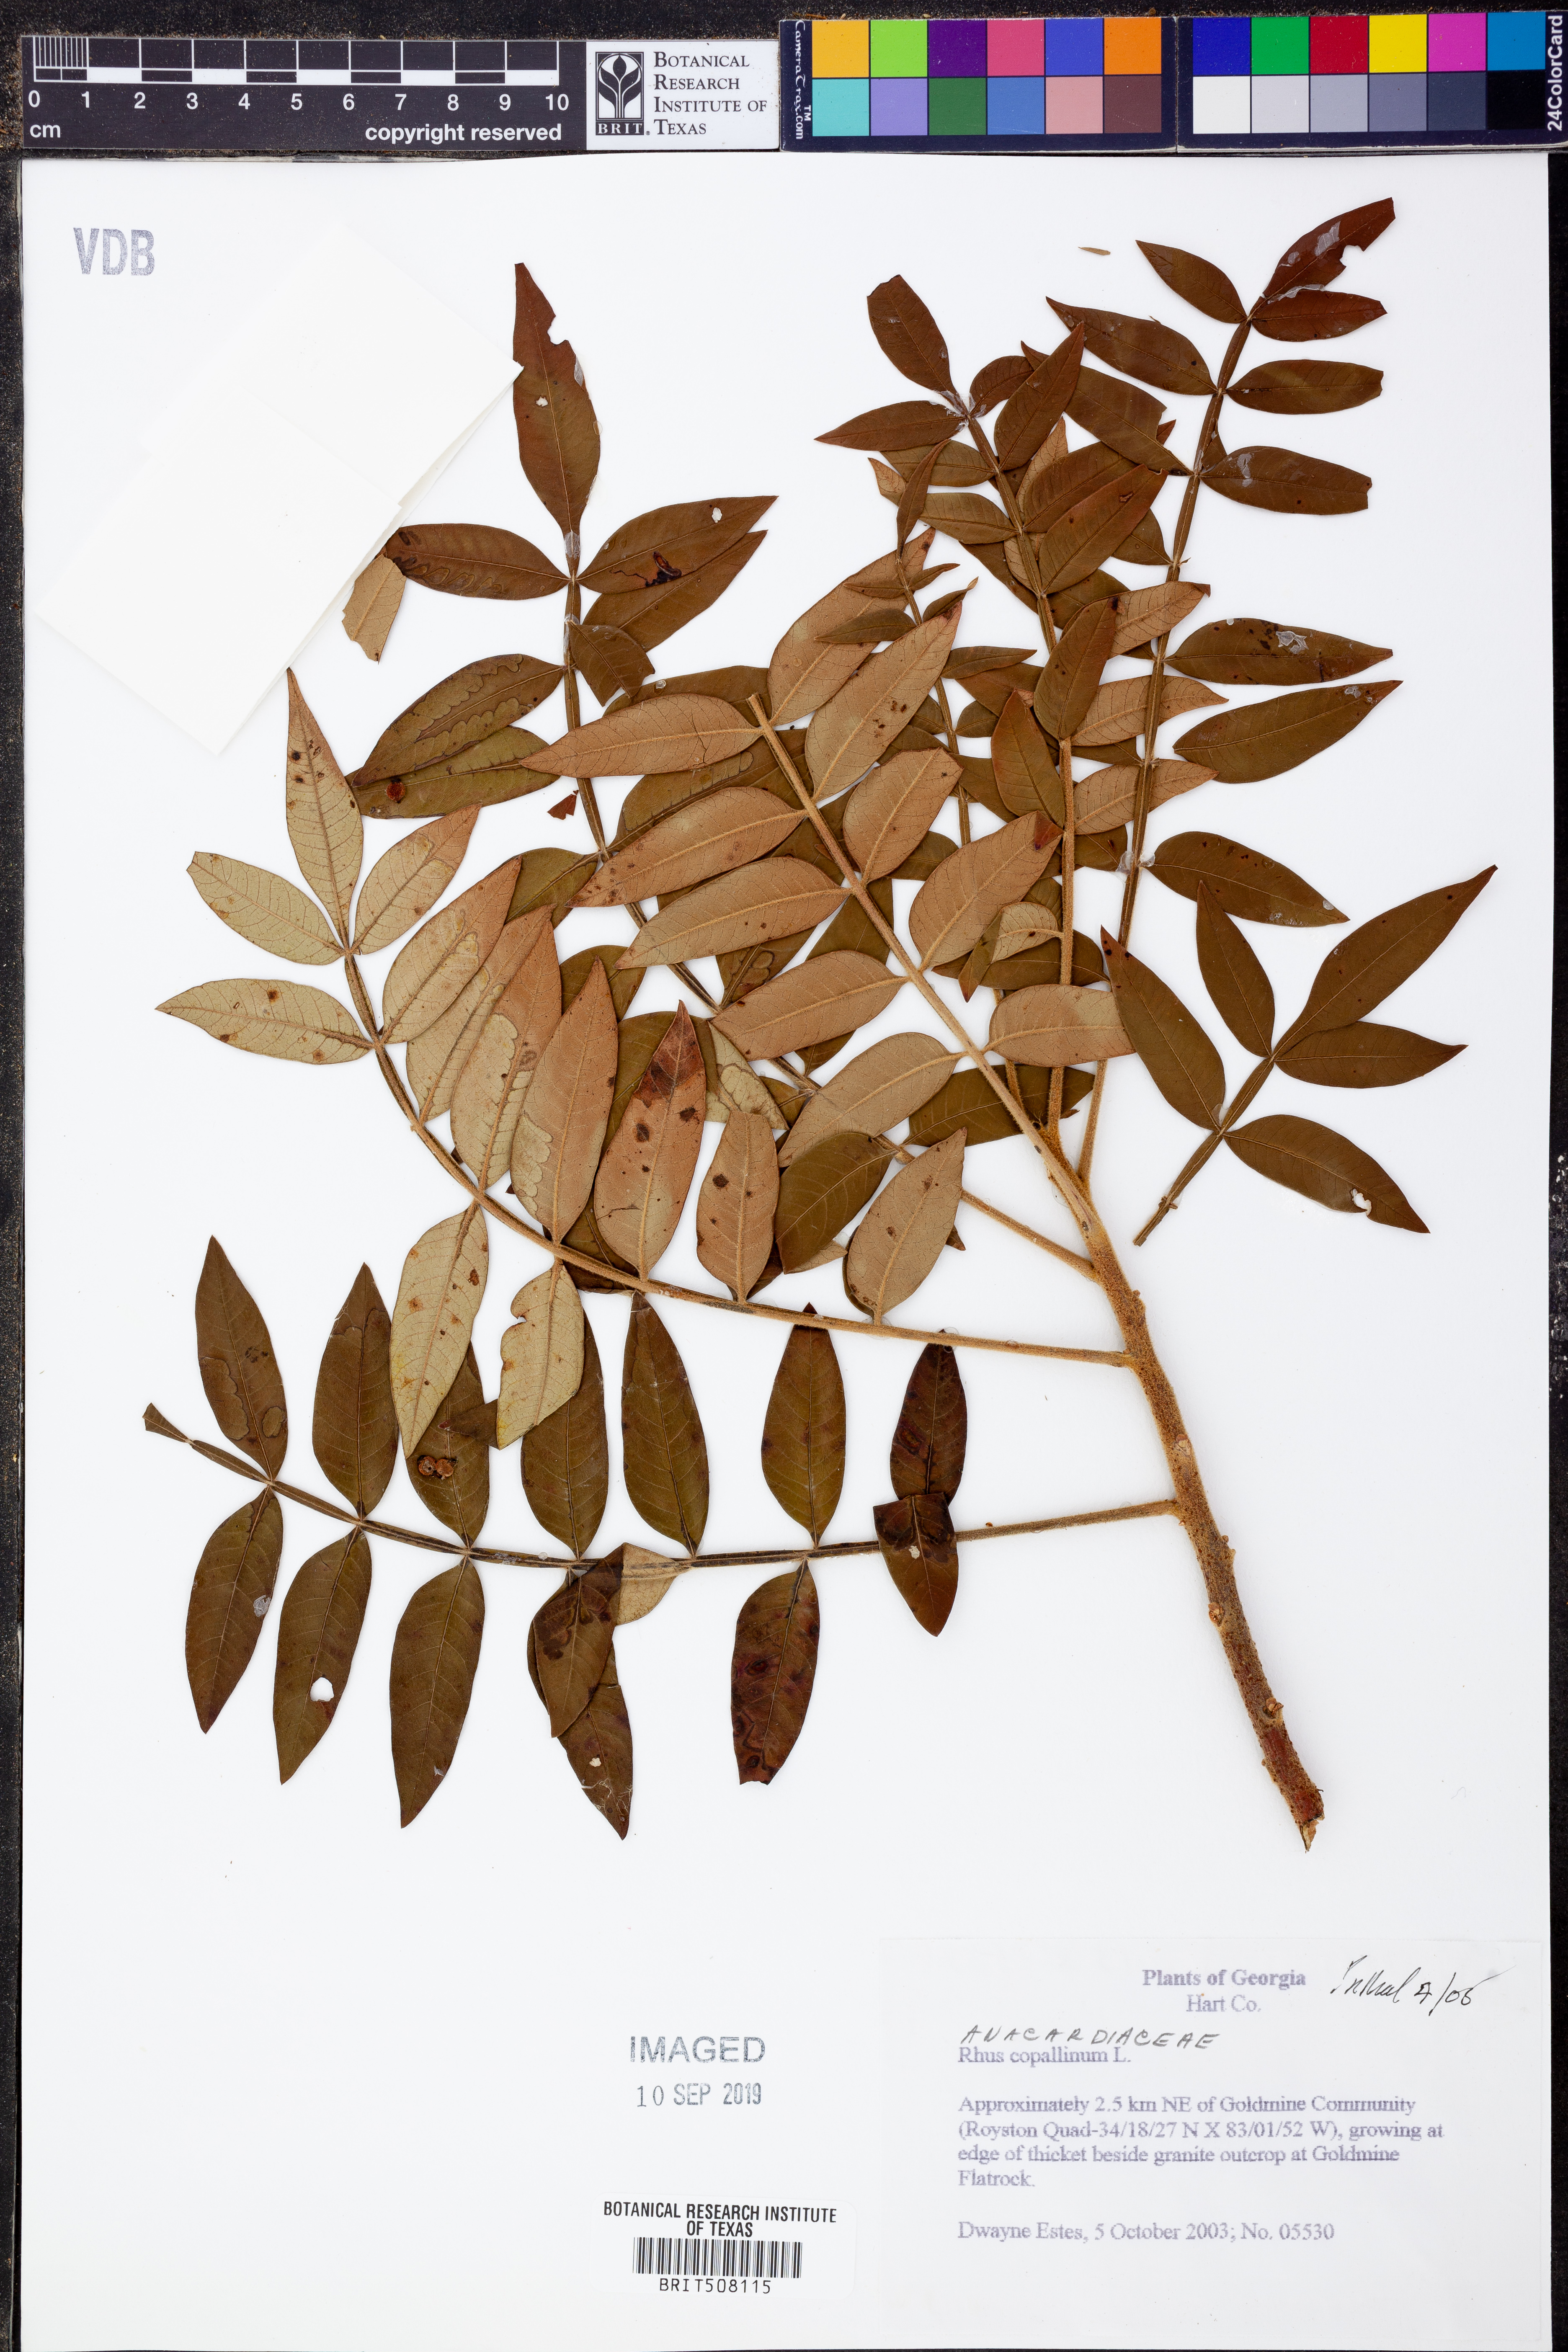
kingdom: Plantae
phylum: Tracheophyta
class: Magnoliopsida
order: Sapindales
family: Anacardiaceae
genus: Rhus
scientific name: Rhus copallina
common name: Shining sumac
